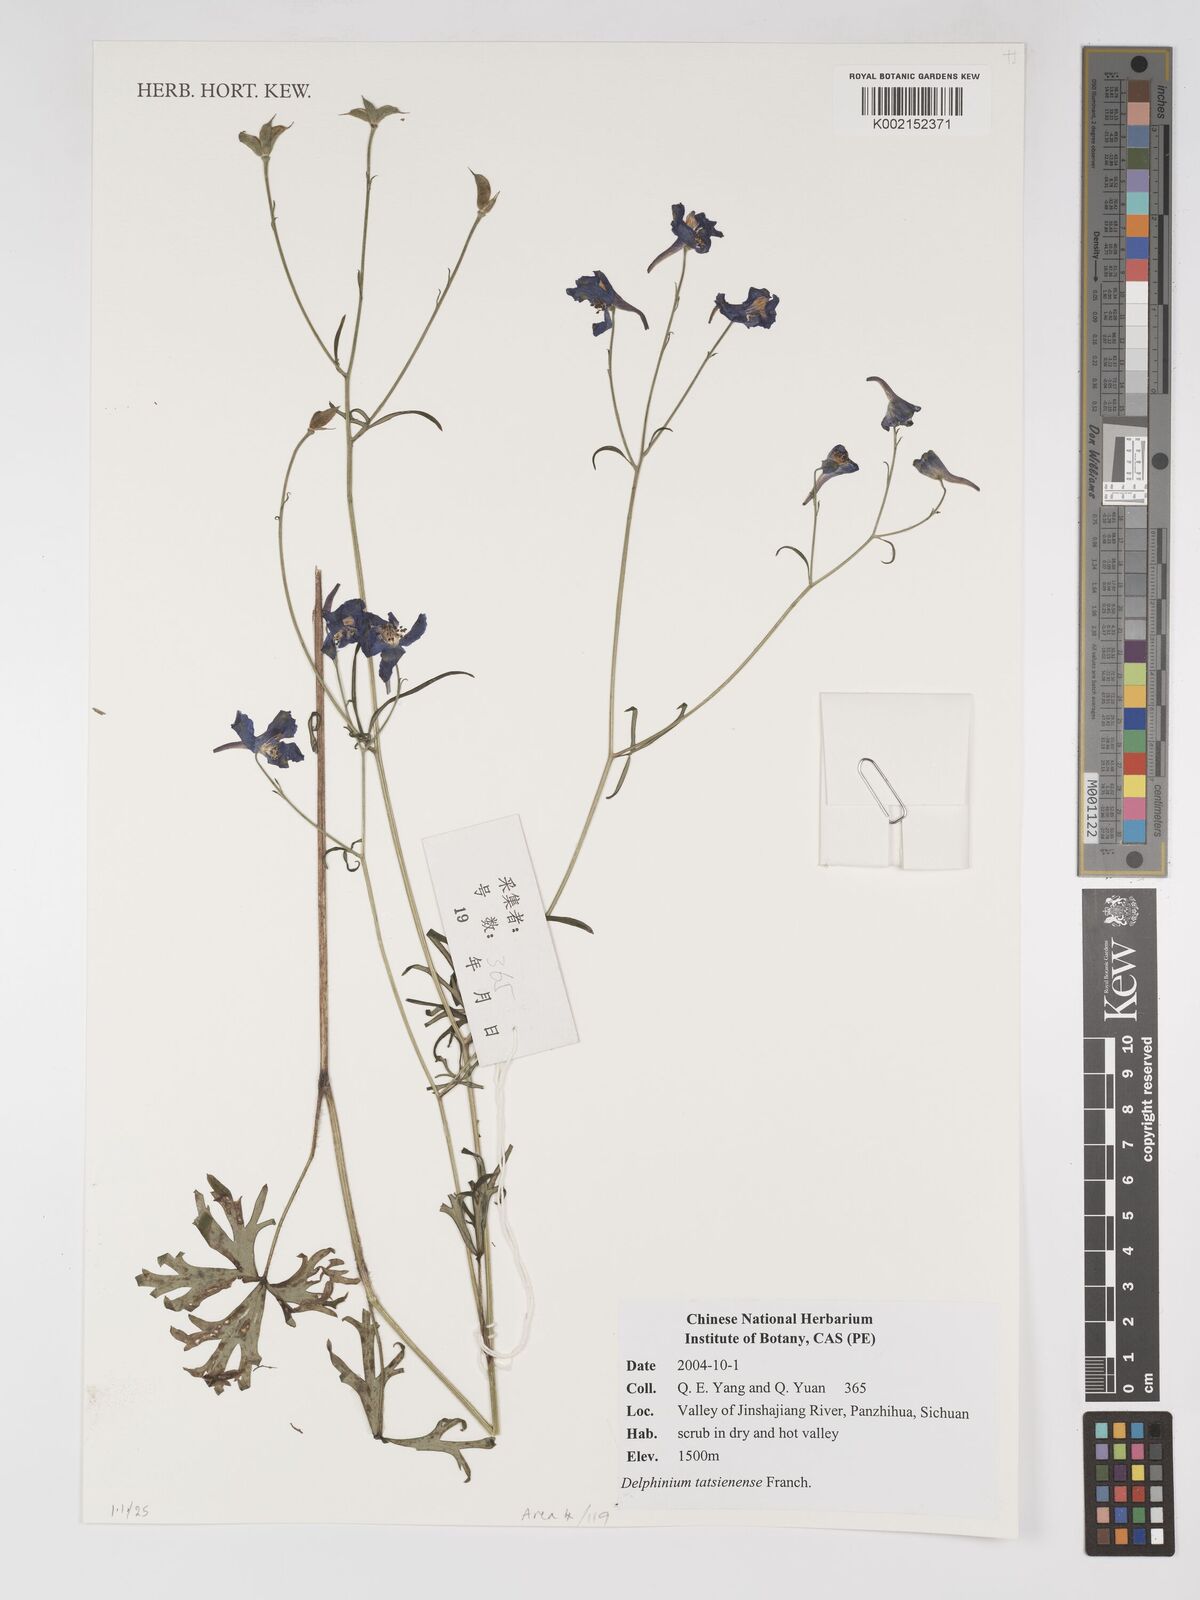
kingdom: Plantae
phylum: Tracheophyta
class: Magnoliopsida
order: Ranunculales
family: Ranunculaceae
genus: Delphinium
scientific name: Delphinium tatsienense
